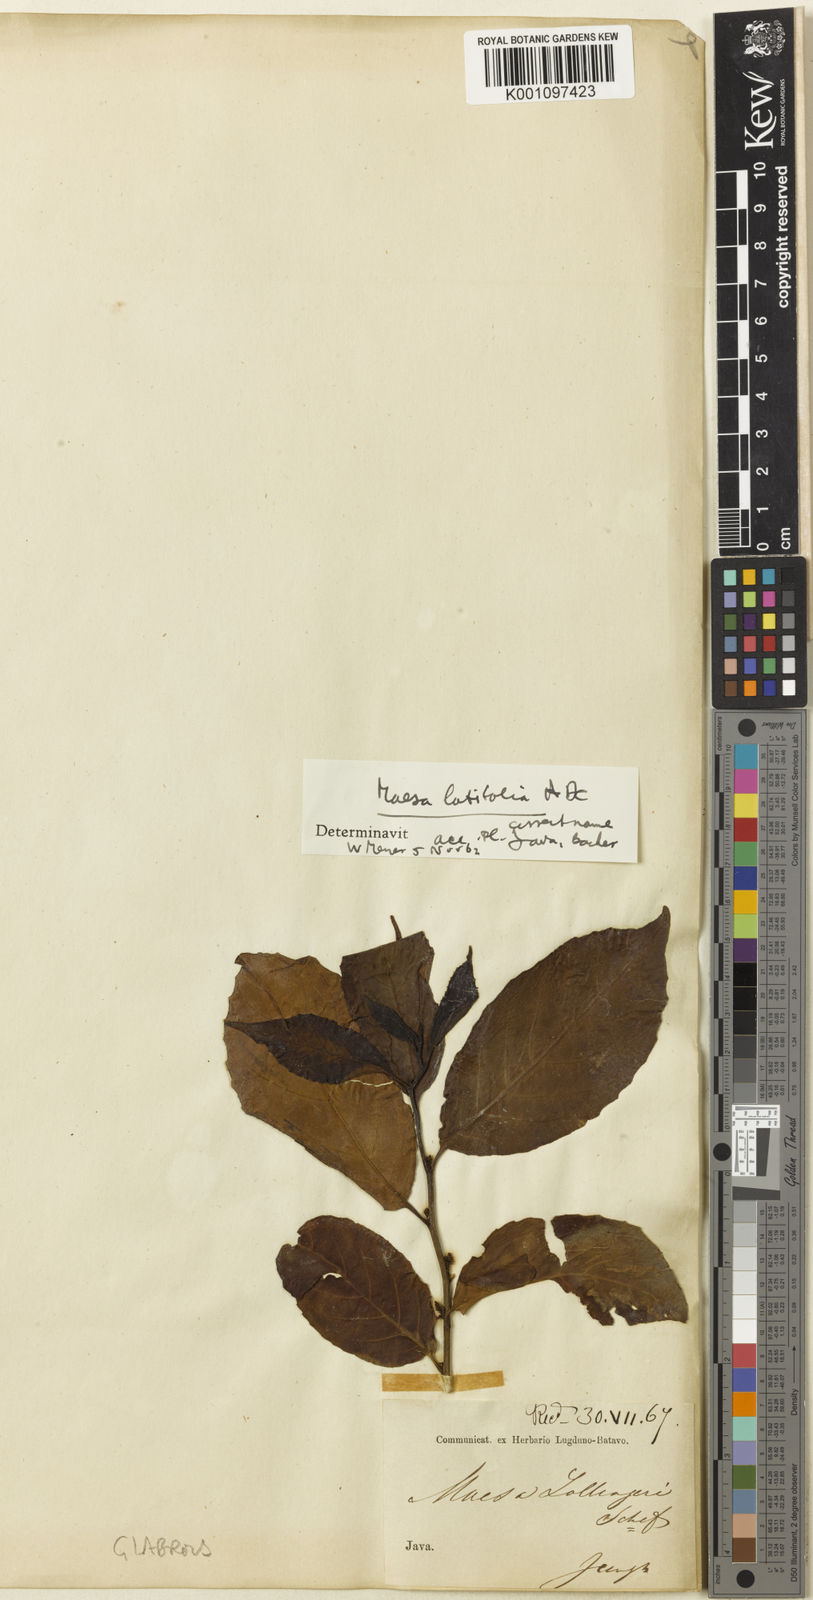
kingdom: Plantae
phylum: Tracheophyta
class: Magnoliopsida
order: Ericales
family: Primulaceae
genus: Maesa
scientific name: Maesa latifolia
